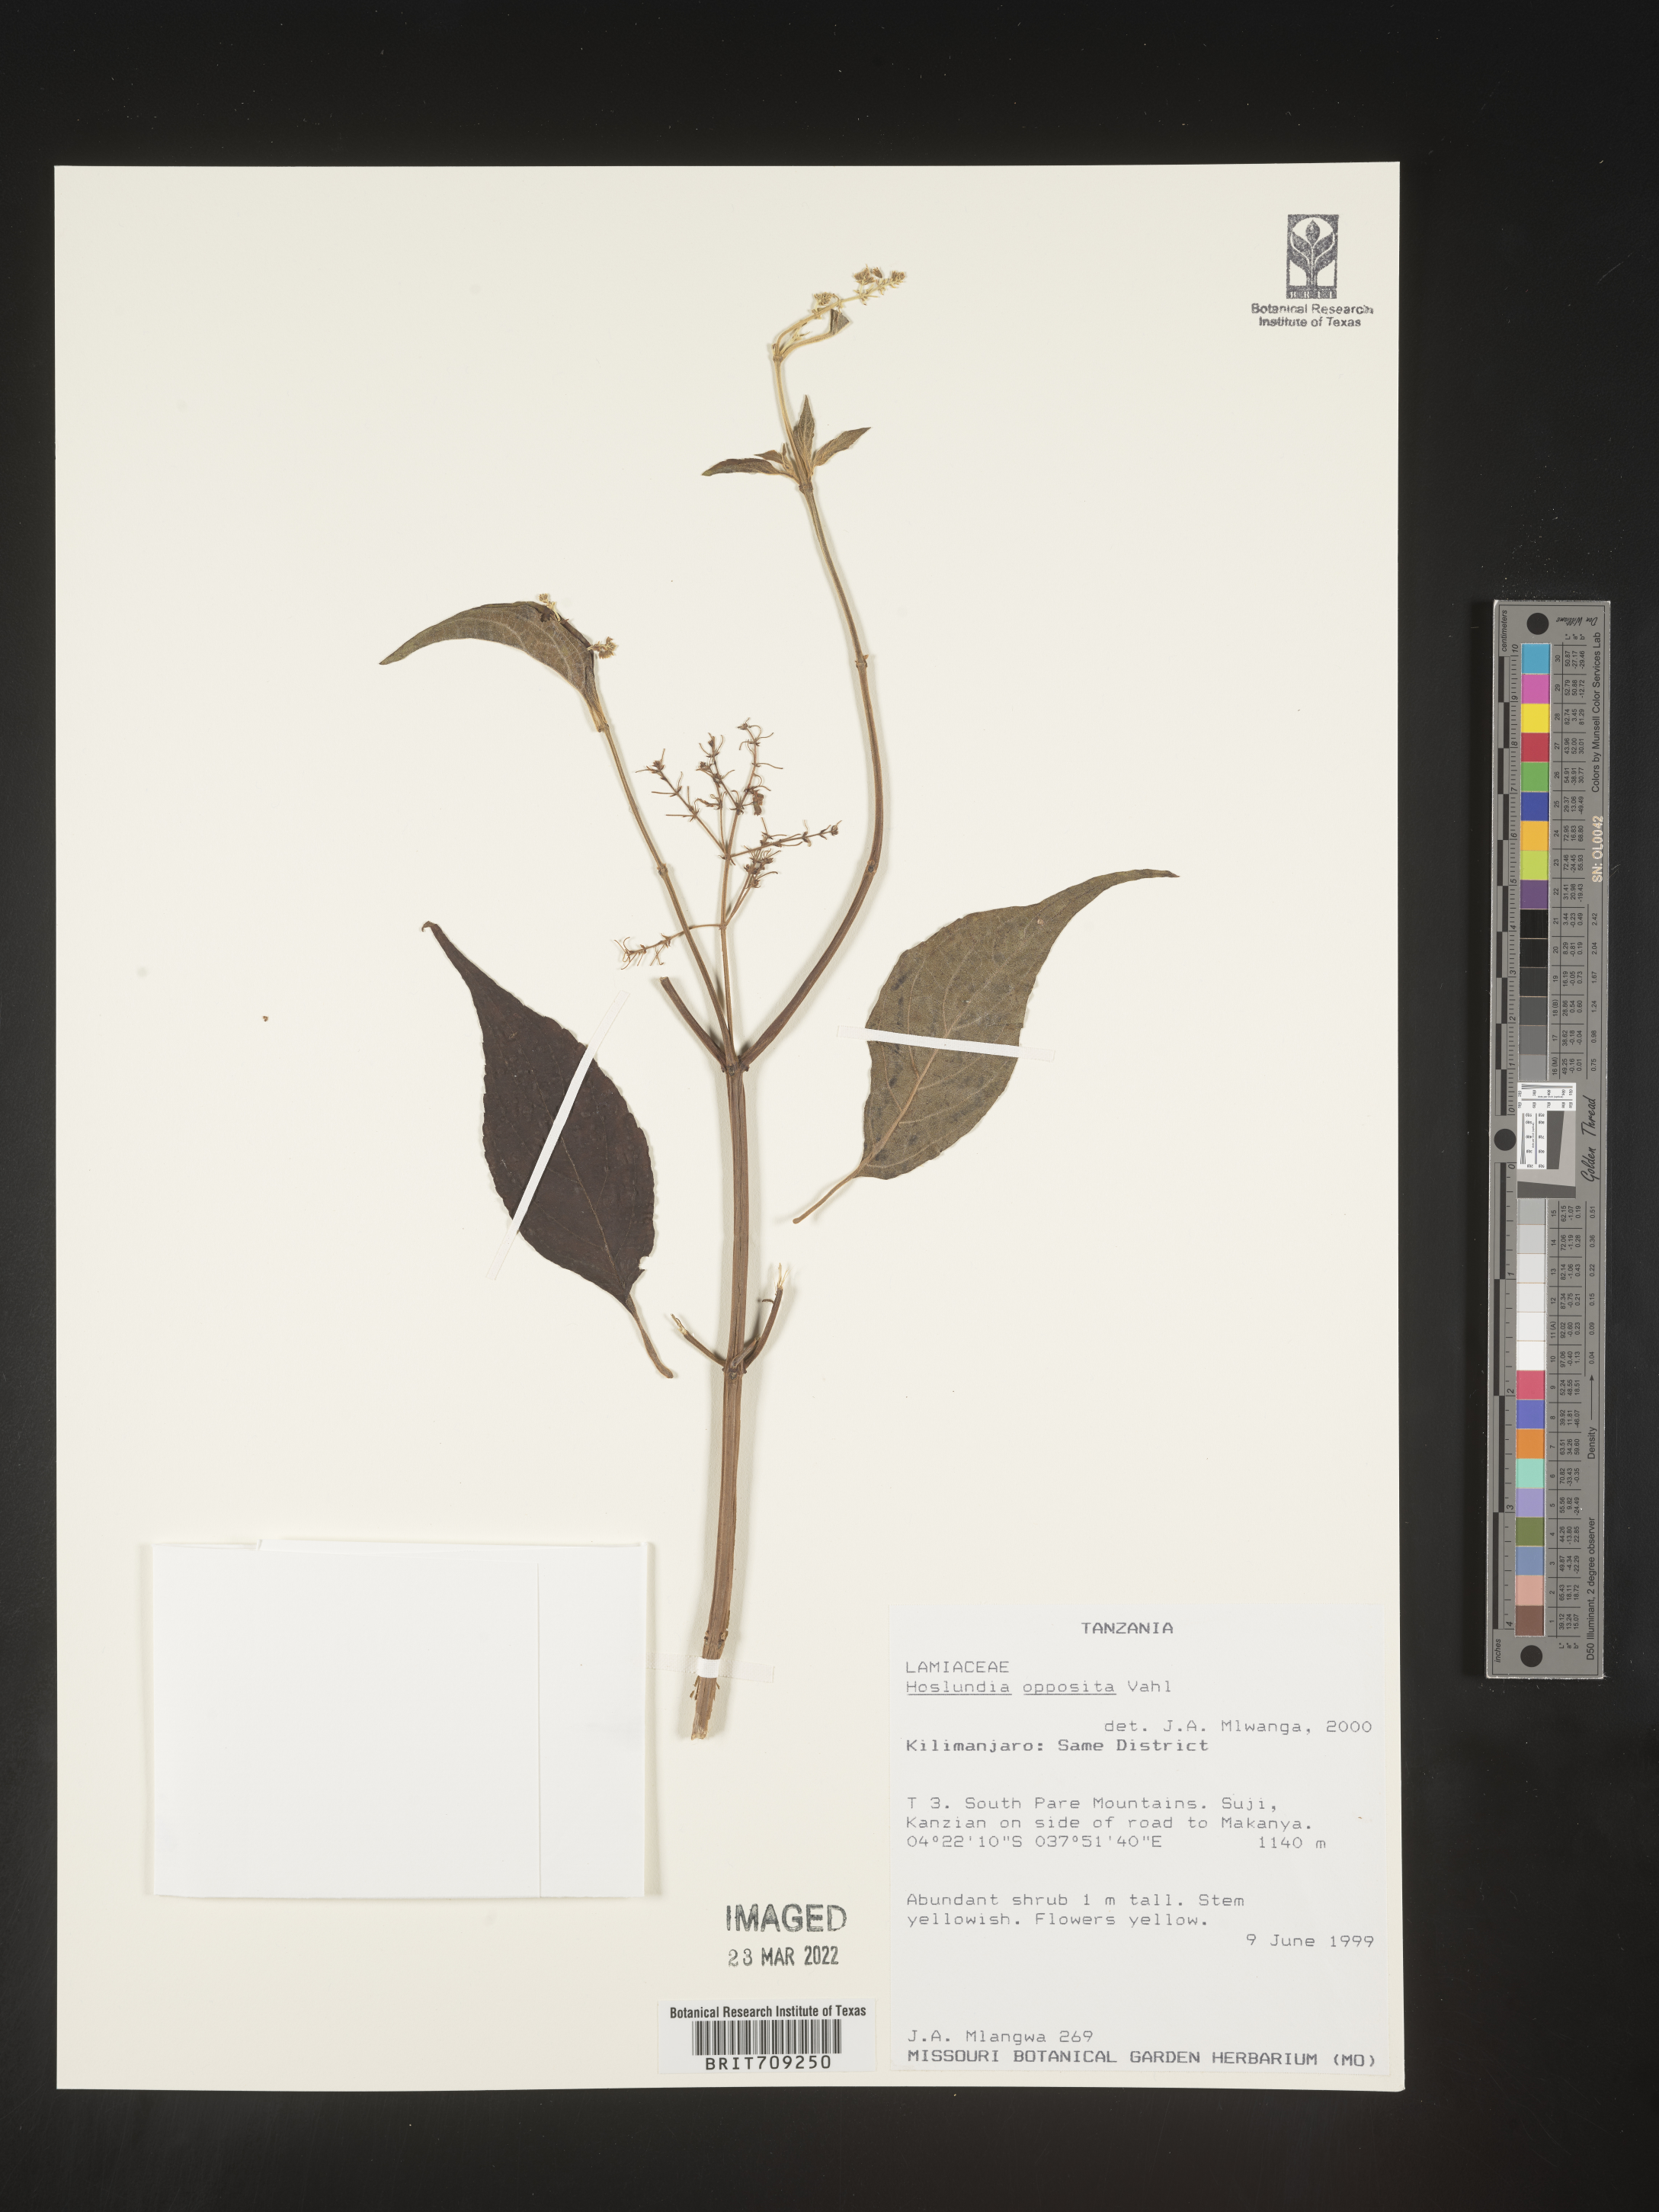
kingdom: Plantae
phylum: Tracheophyta
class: Magnoliopsida
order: Lamiales
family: Lamiaceae
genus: Hoslundia
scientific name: Hoslundia opposita
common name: Kamyuye
